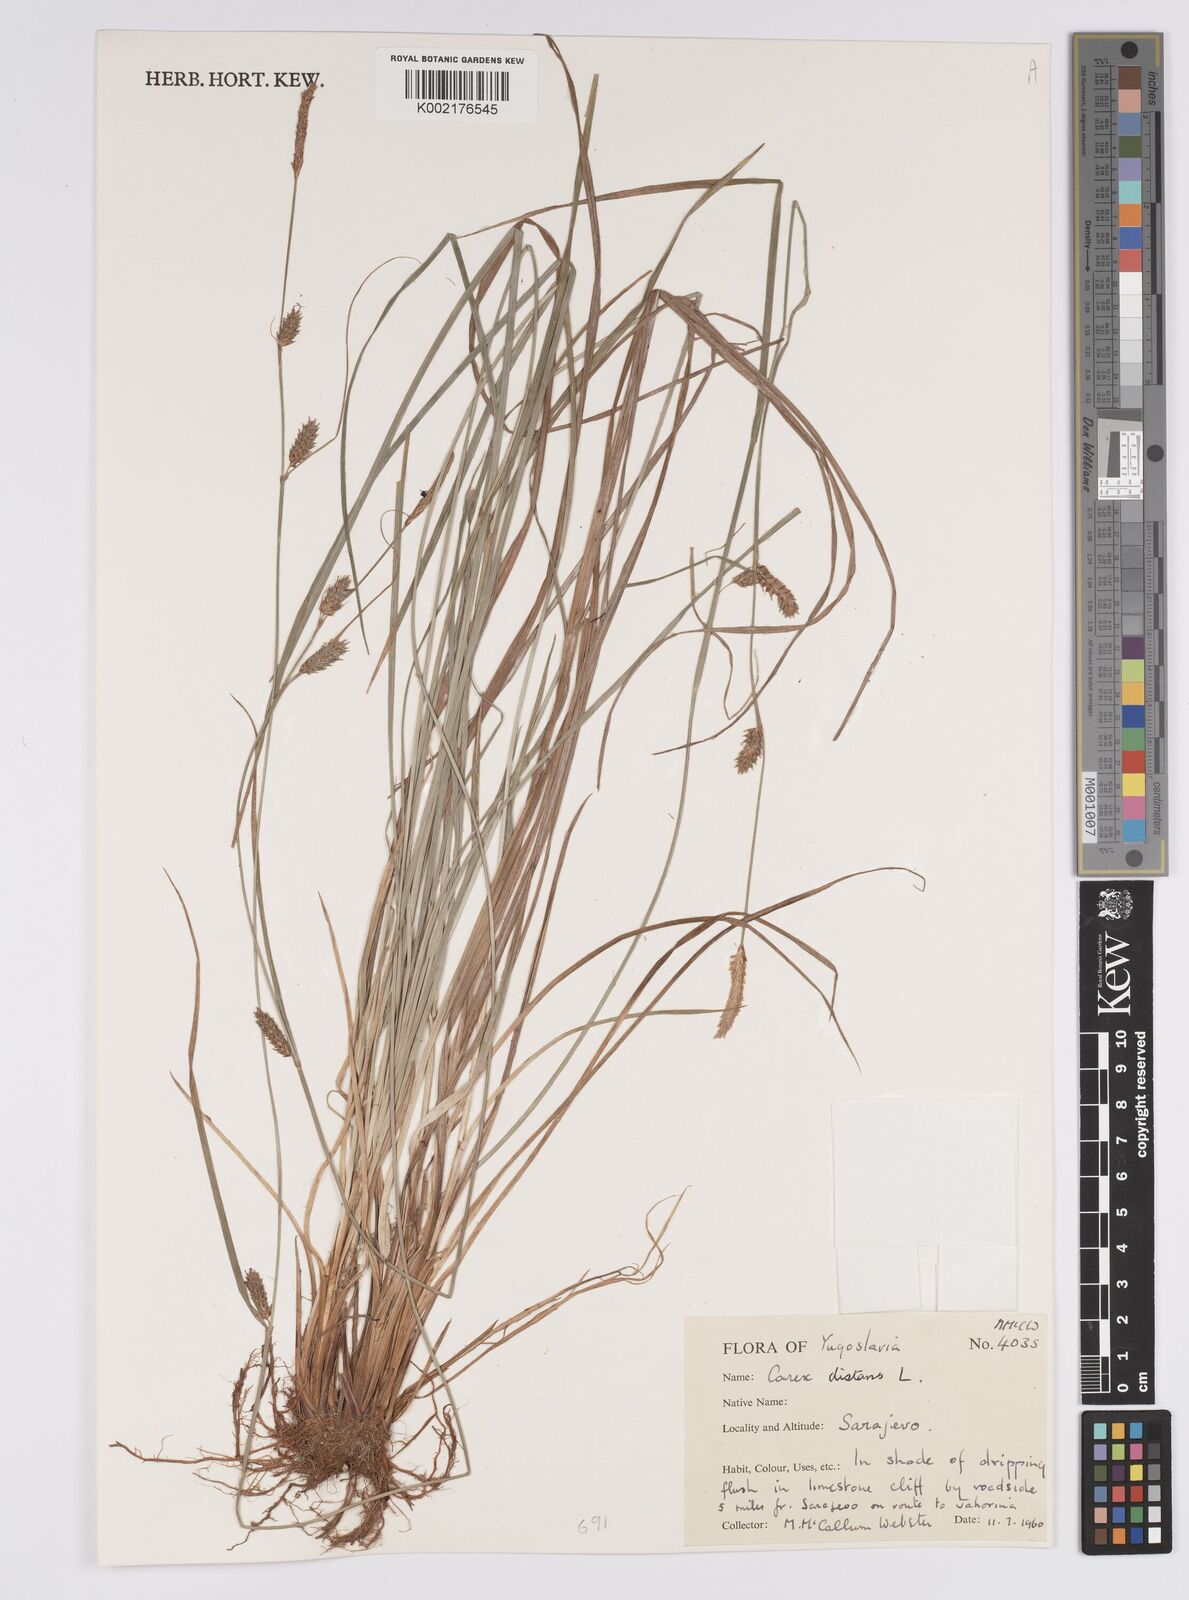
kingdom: Plantae
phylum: Tracheophyta
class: Liliopsida
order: Poales
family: Cyperaceae
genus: Carex
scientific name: Carex distans
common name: Distant sedge
